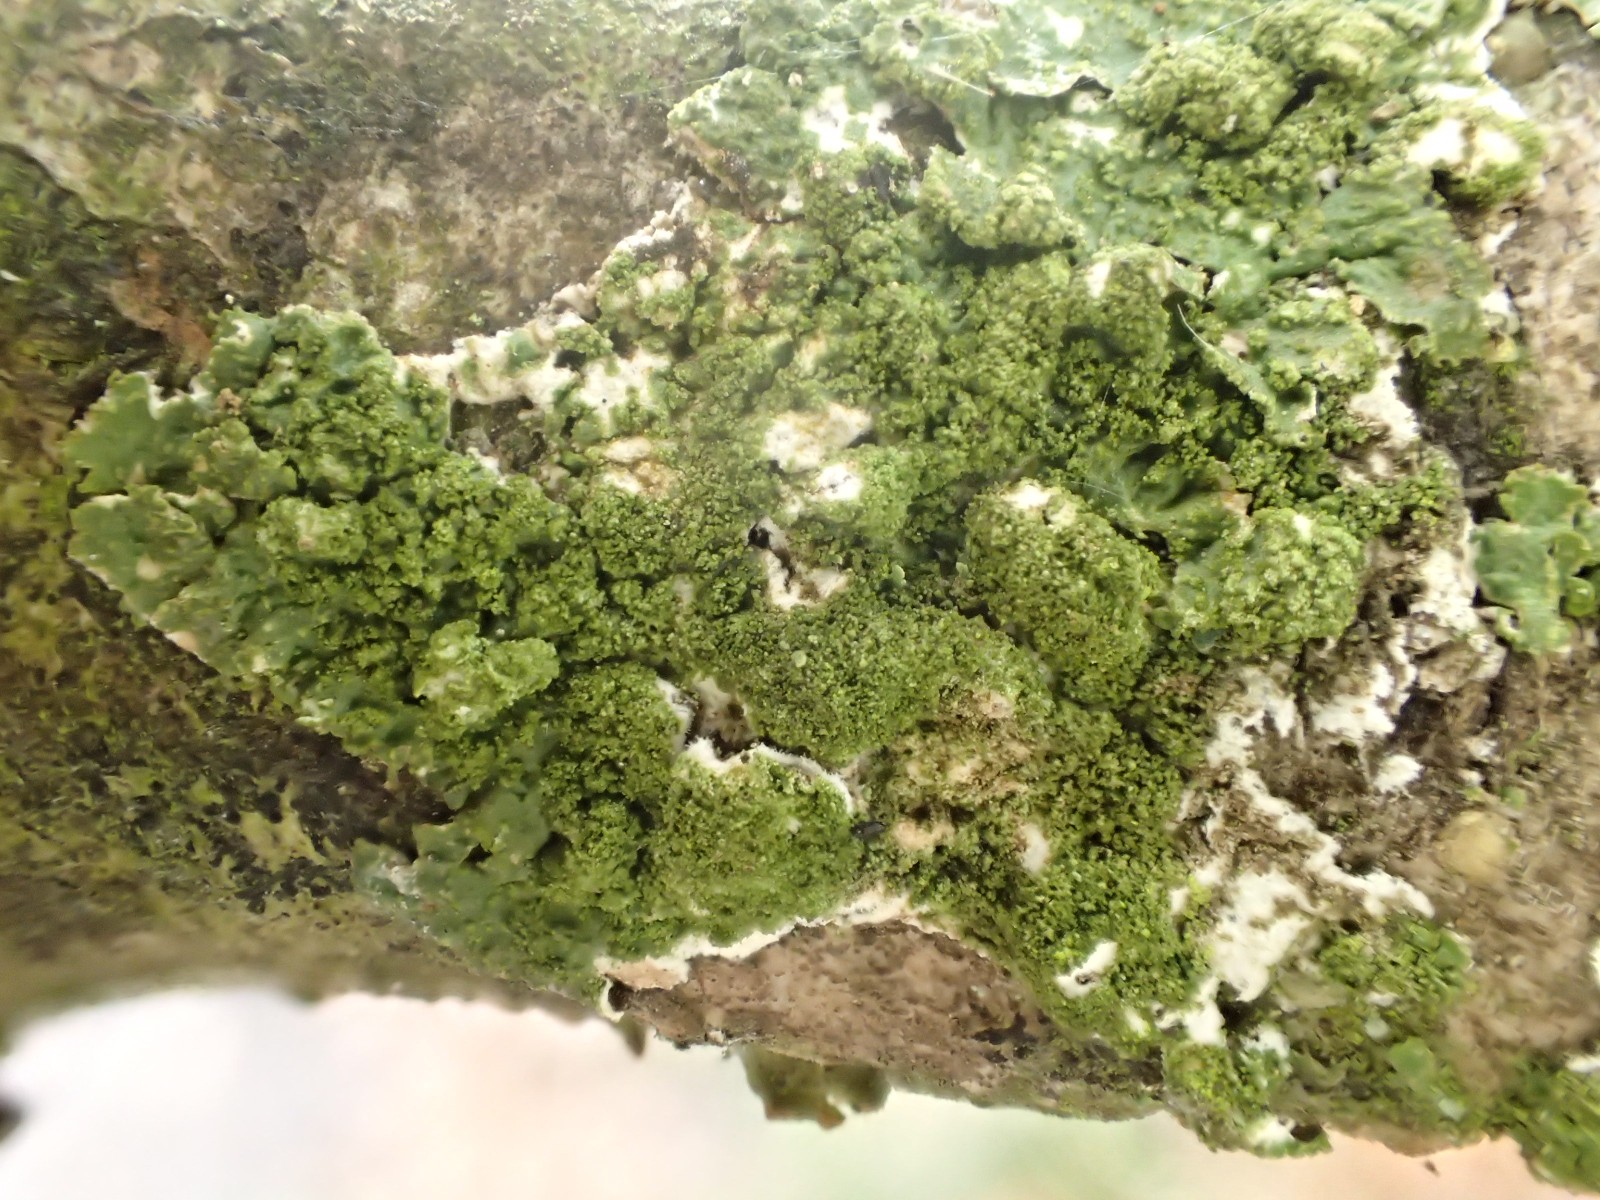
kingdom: Fungi
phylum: Ascomycota
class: Lecanoromycetes
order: Lecanorales
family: Parmeliaceae
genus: Melanelixia
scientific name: Melanelixia glabratula
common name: glinsende skållav
